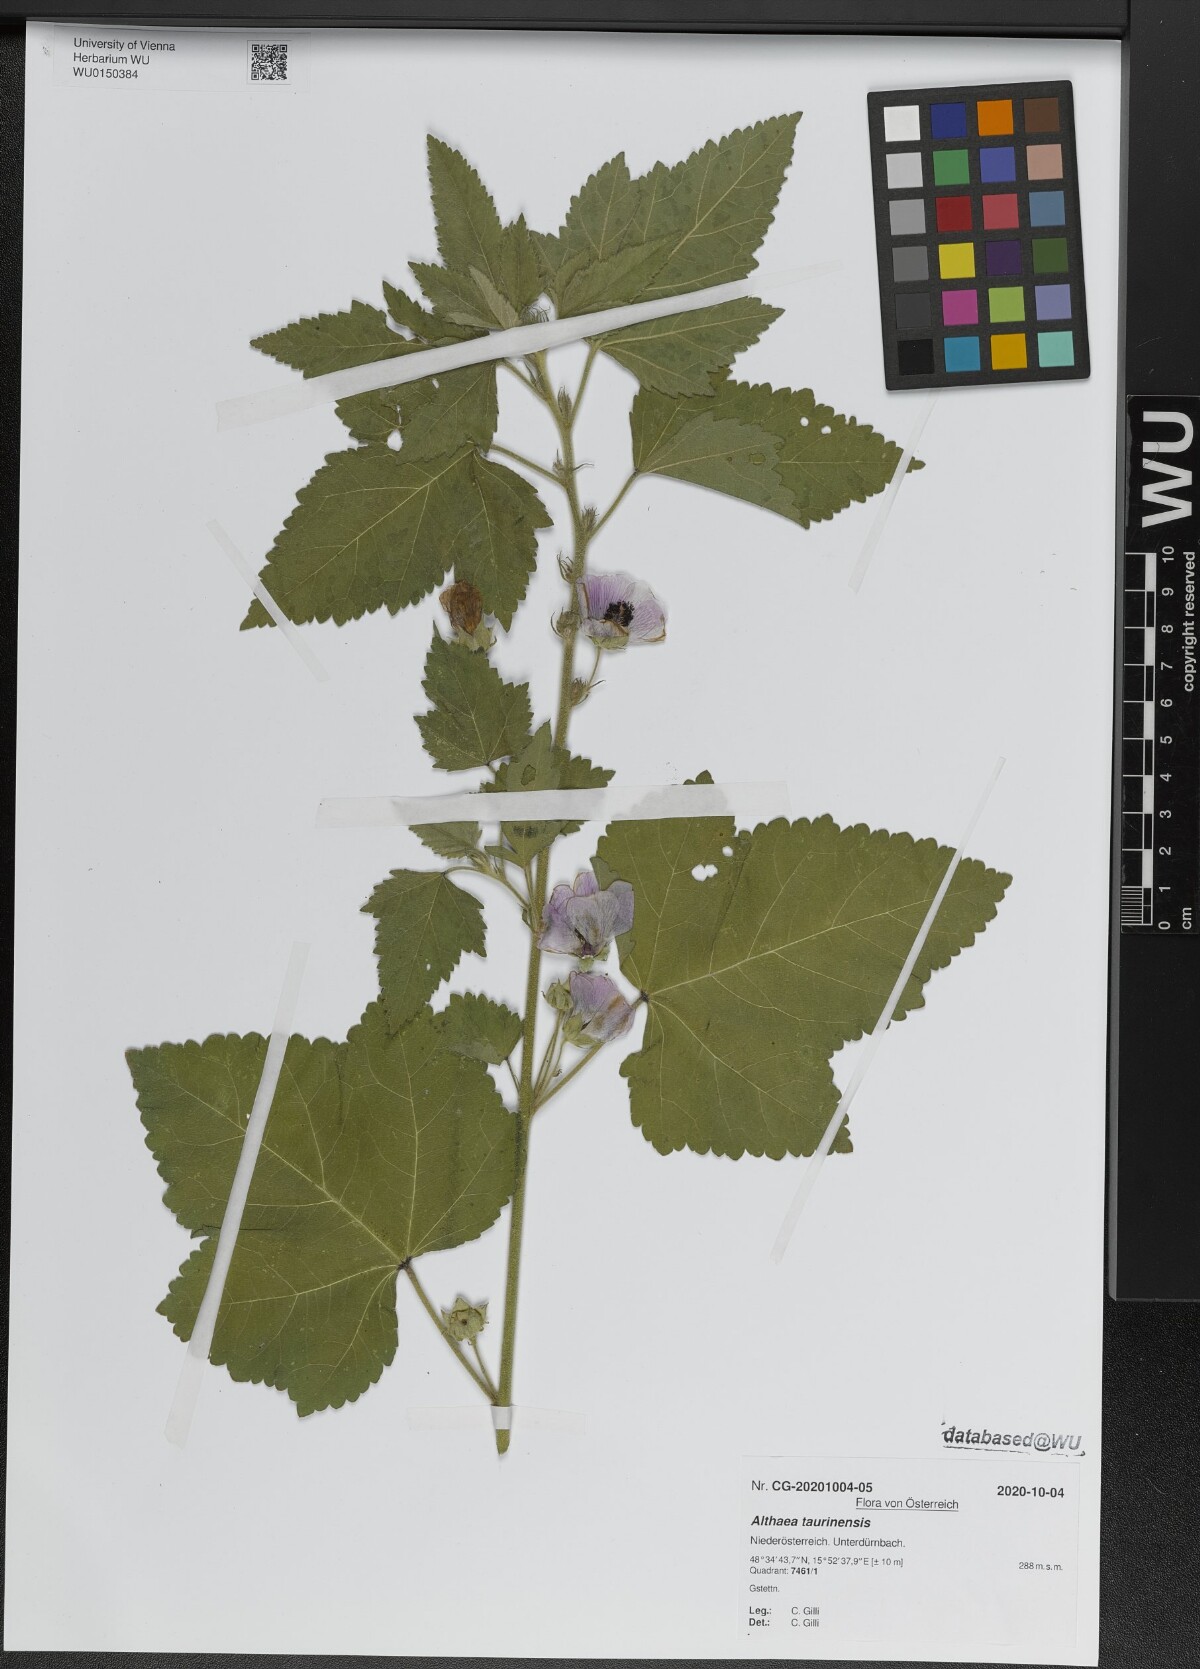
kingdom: Plantae
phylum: Tracheophyta
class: Magnoliopsida
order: Malvales
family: Malvaceae
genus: Althaea
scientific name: Althaea taurinensis
